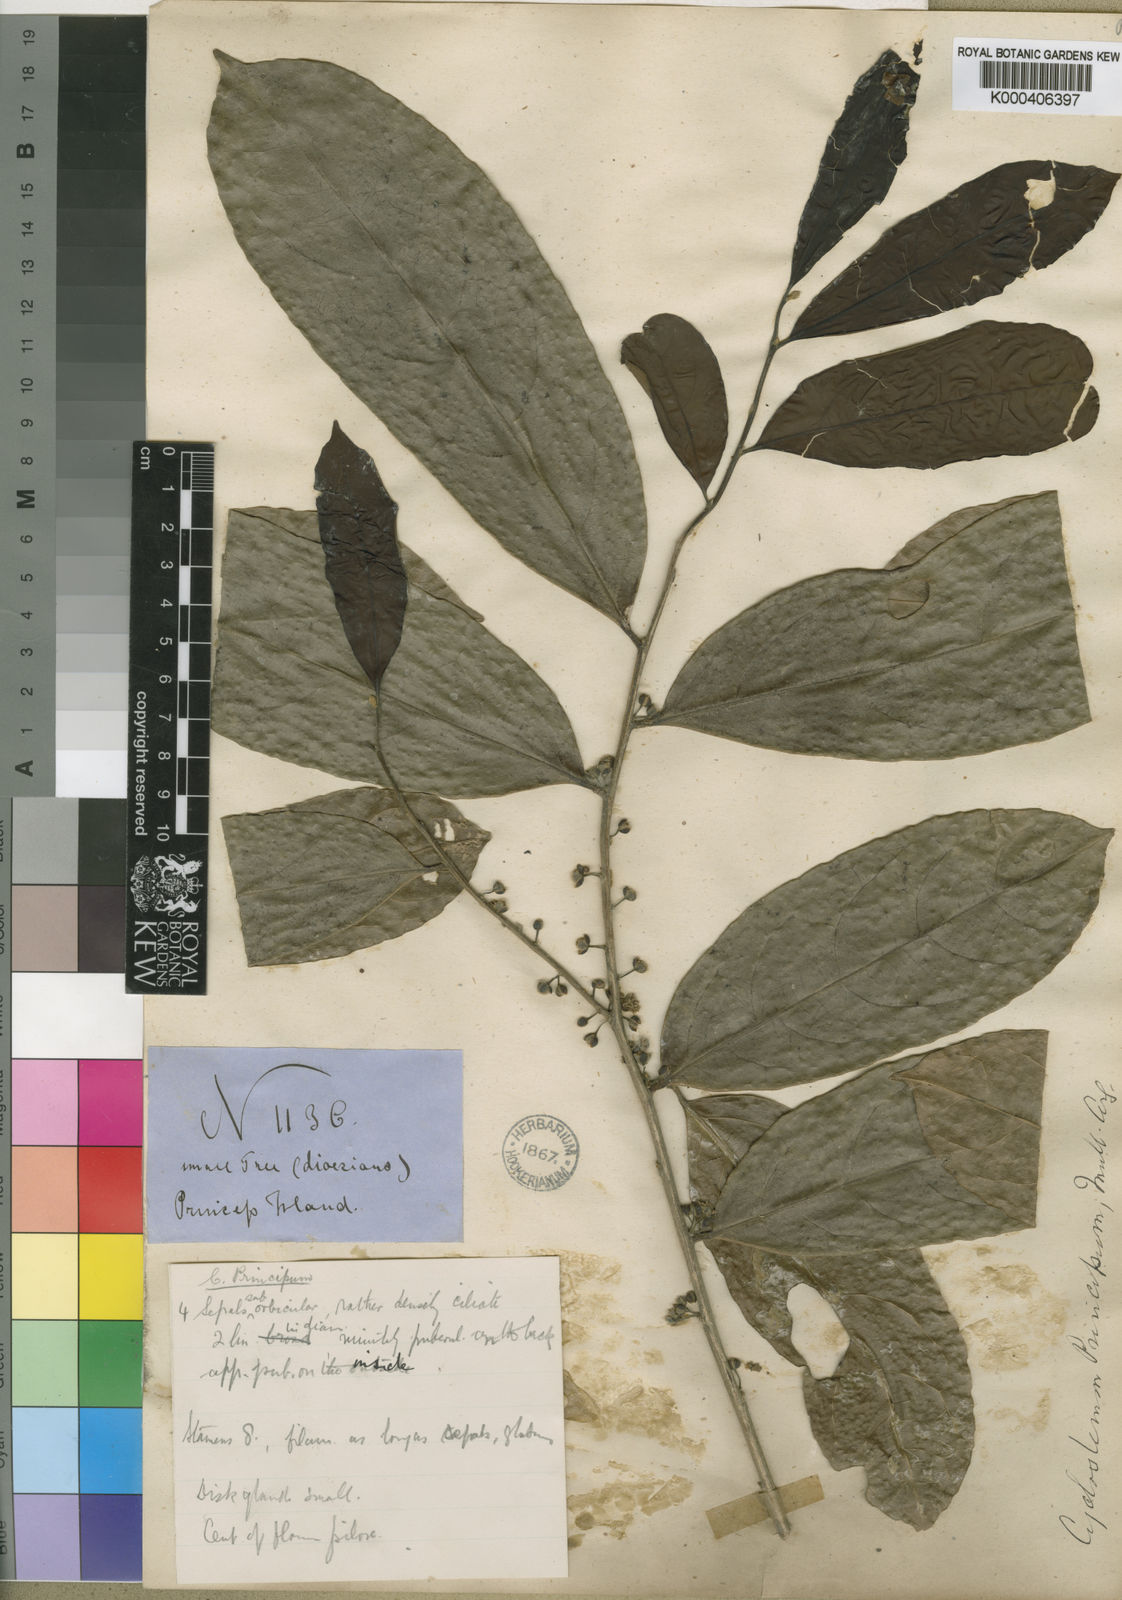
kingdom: Plantae
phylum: Tracheophyta
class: Magnoliopsida
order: Malpighiales
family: Putranjivaceae
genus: Drypetes
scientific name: Drypetes
